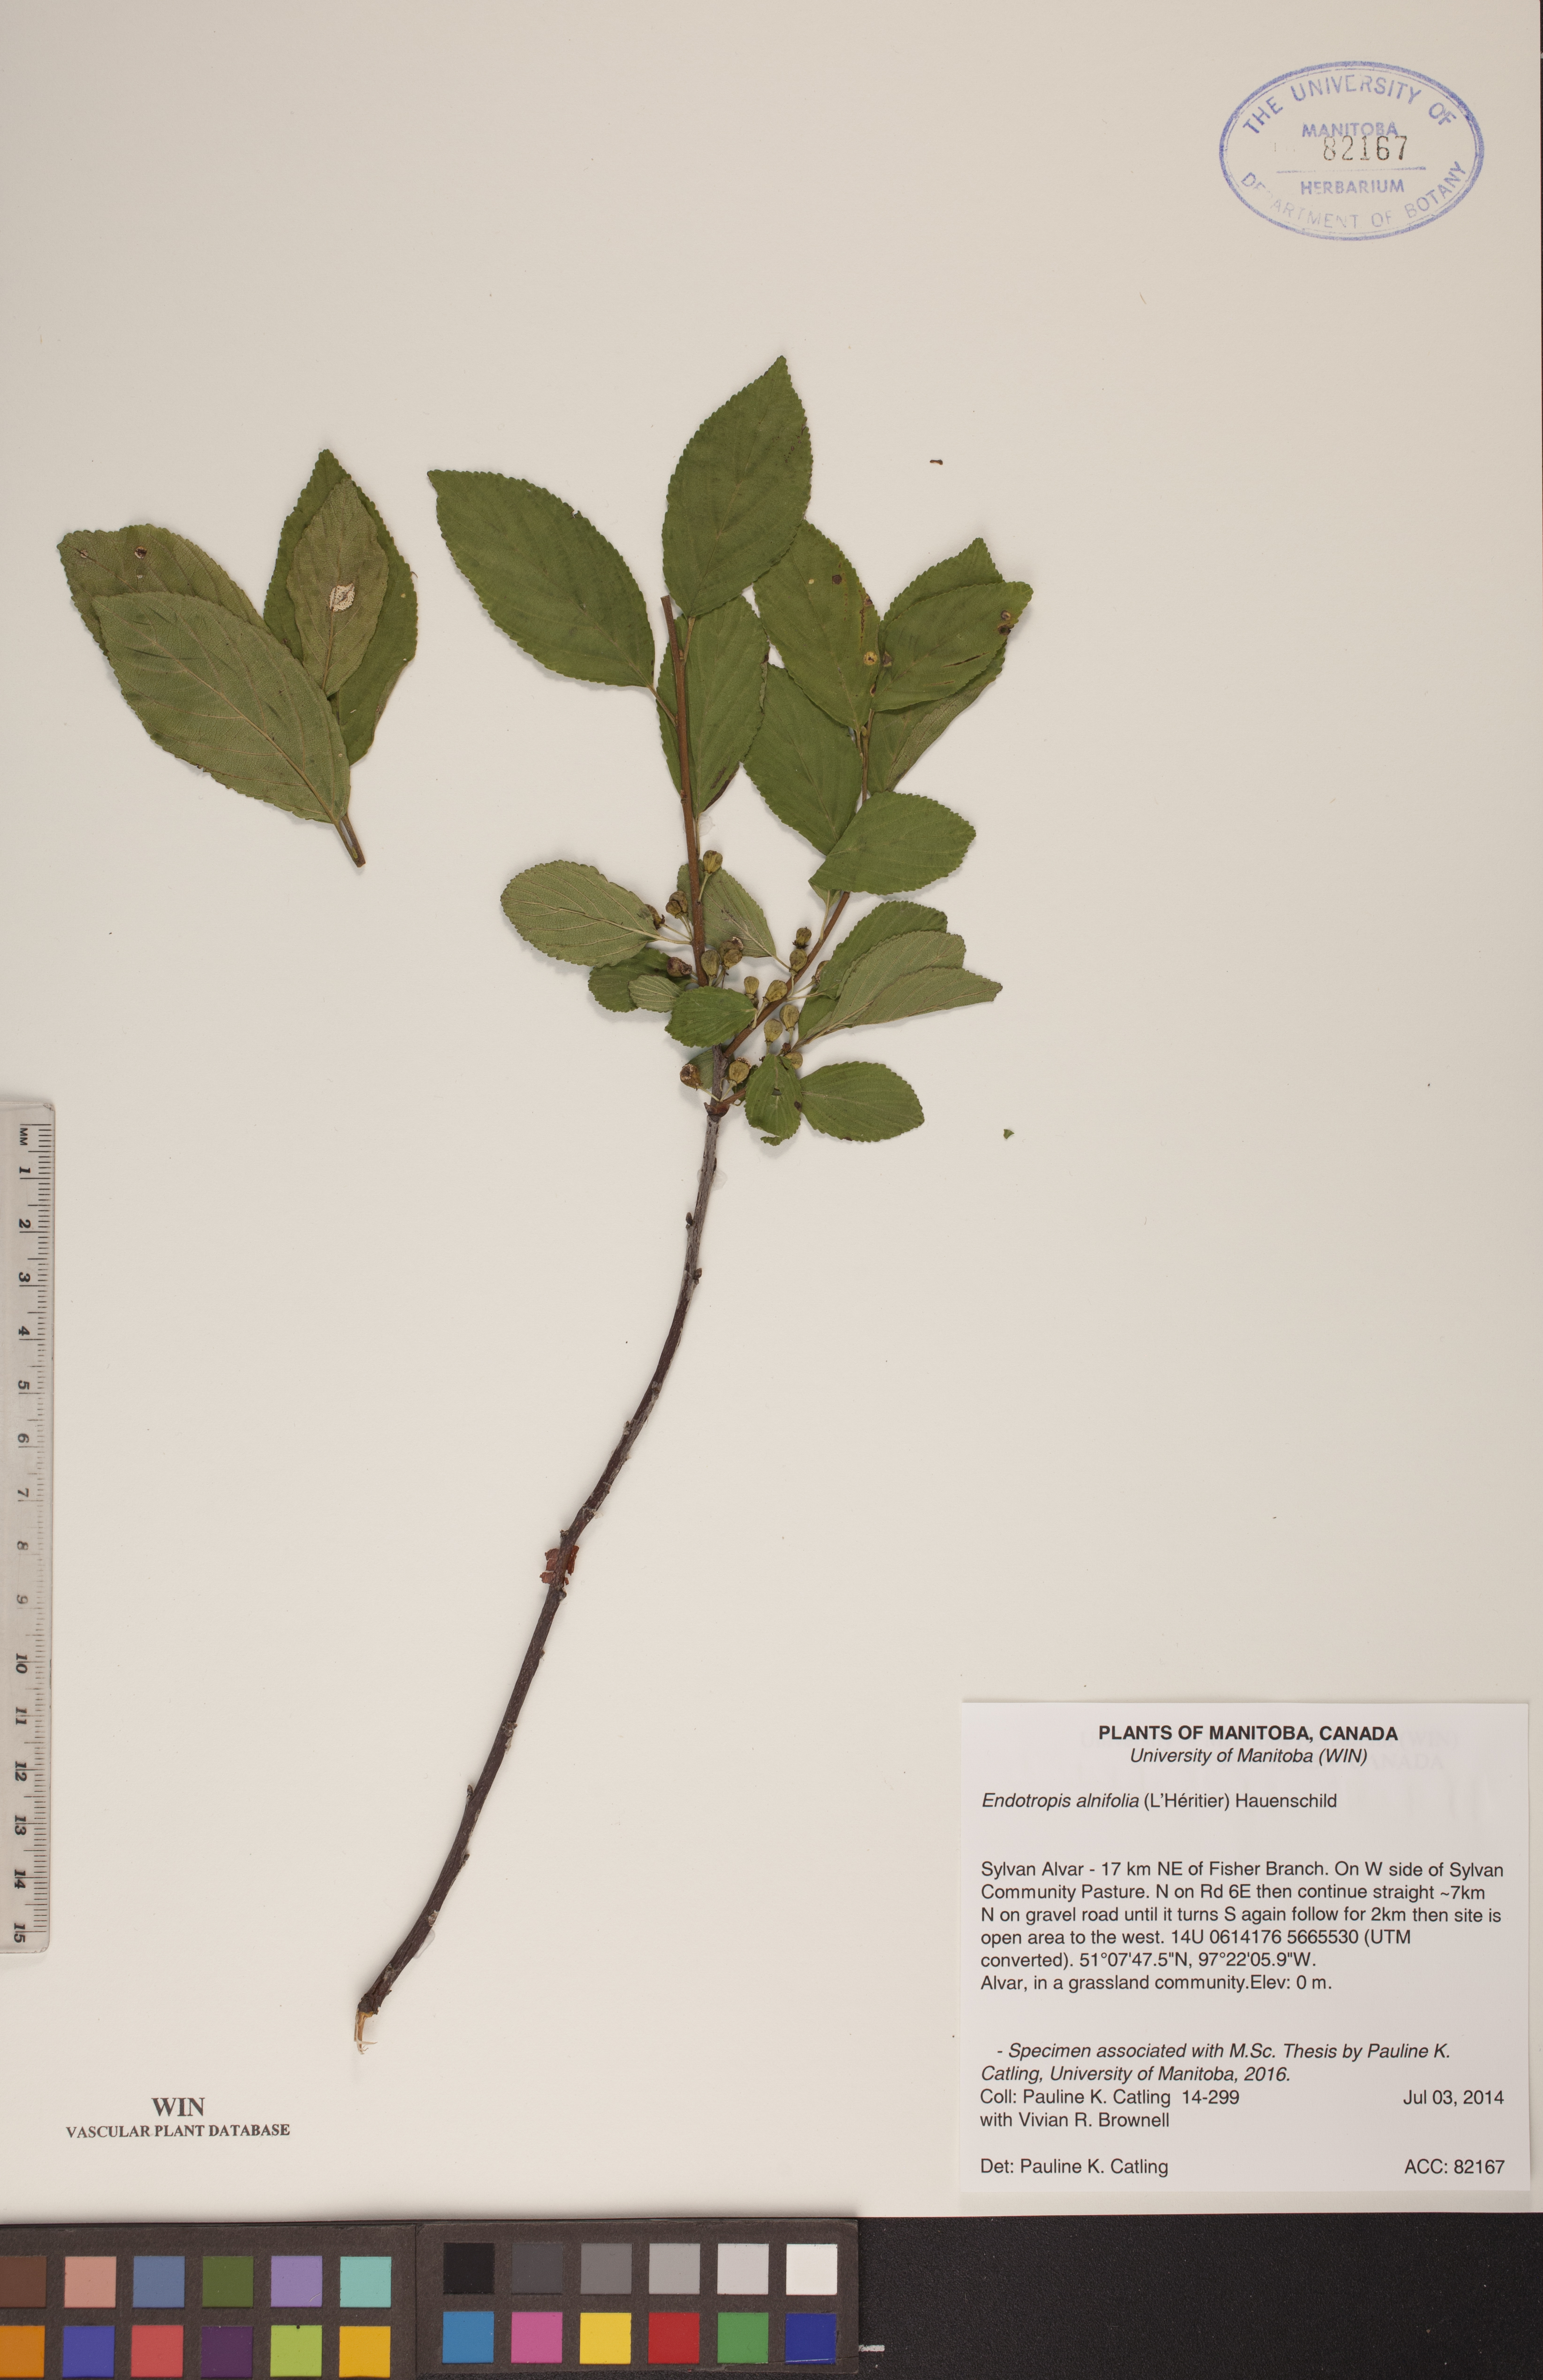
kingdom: Plantae
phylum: Tracheophyta
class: Magnoliopsida
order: Rosales
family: Rhamnaceae
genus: Endotropis
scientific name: Endotropis alnifolia
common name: American alder-buckthorn
